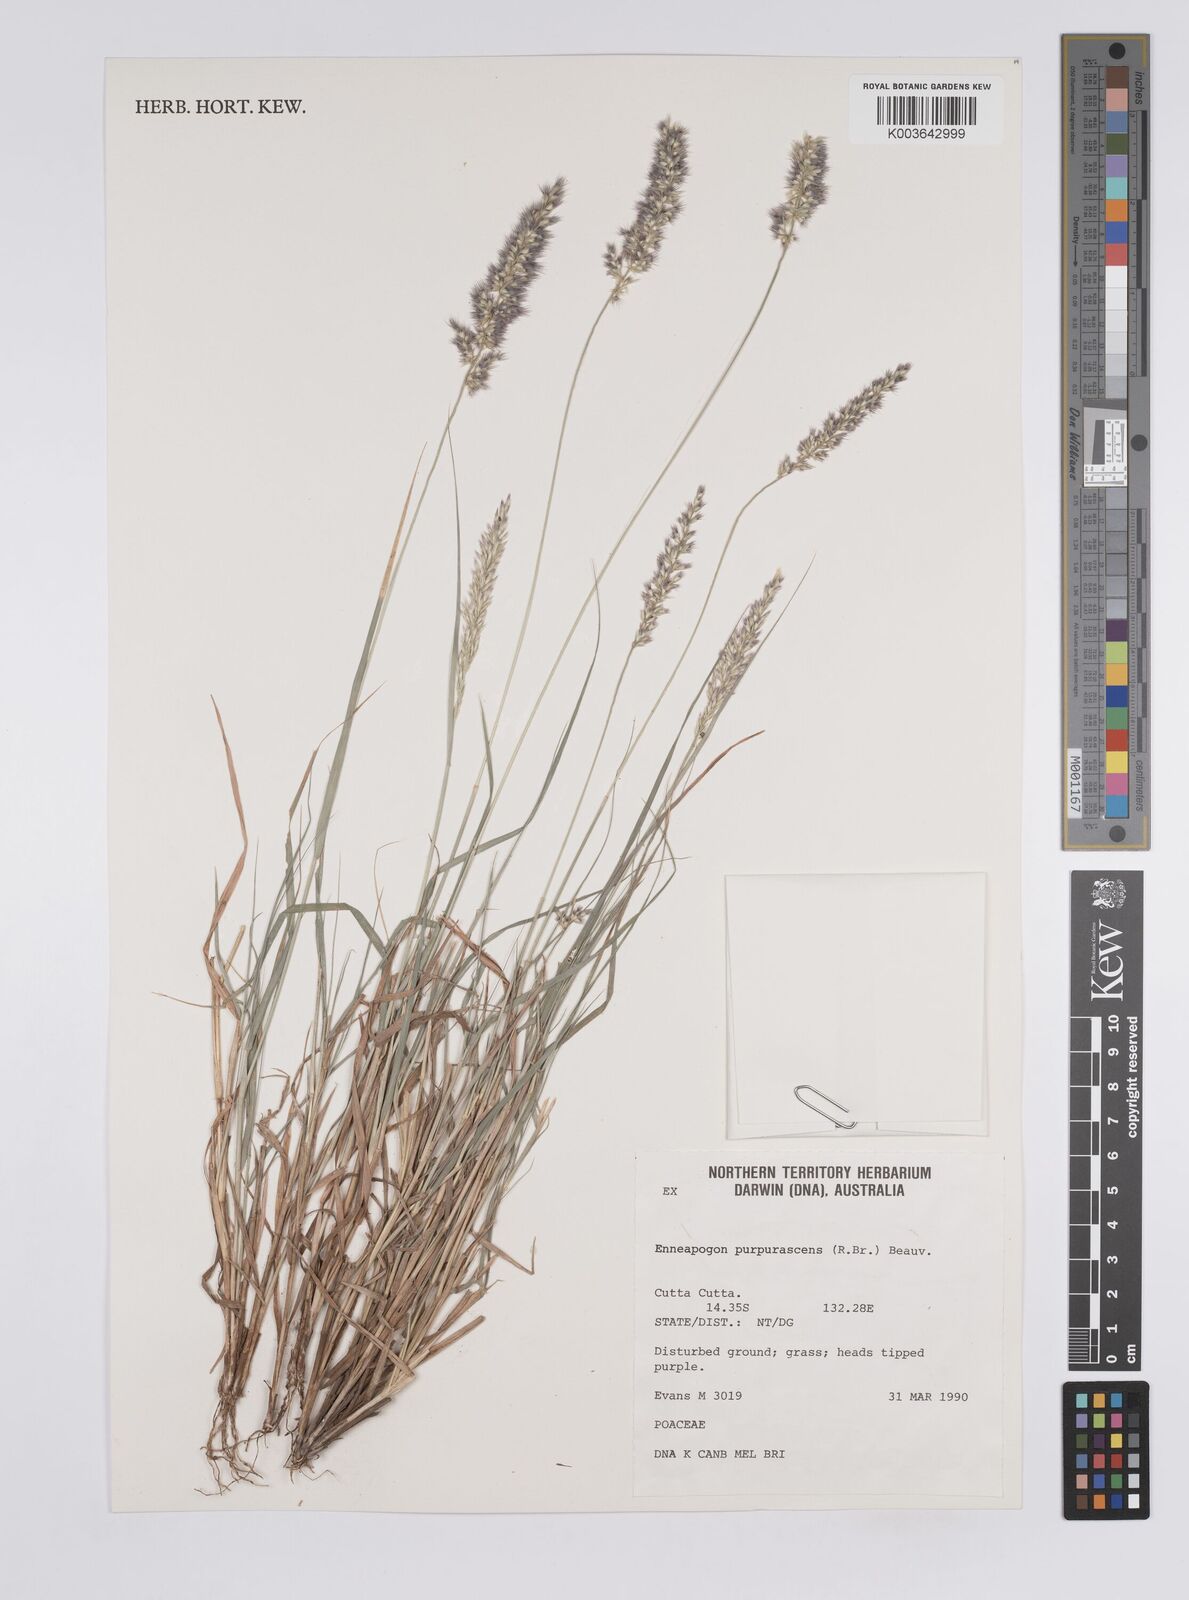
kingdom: Plantae
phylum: Tracheophyta
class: Liliopsida
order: Poales
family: Poaceae
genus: Enneapogon
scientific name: Enneapogon purpurascens
